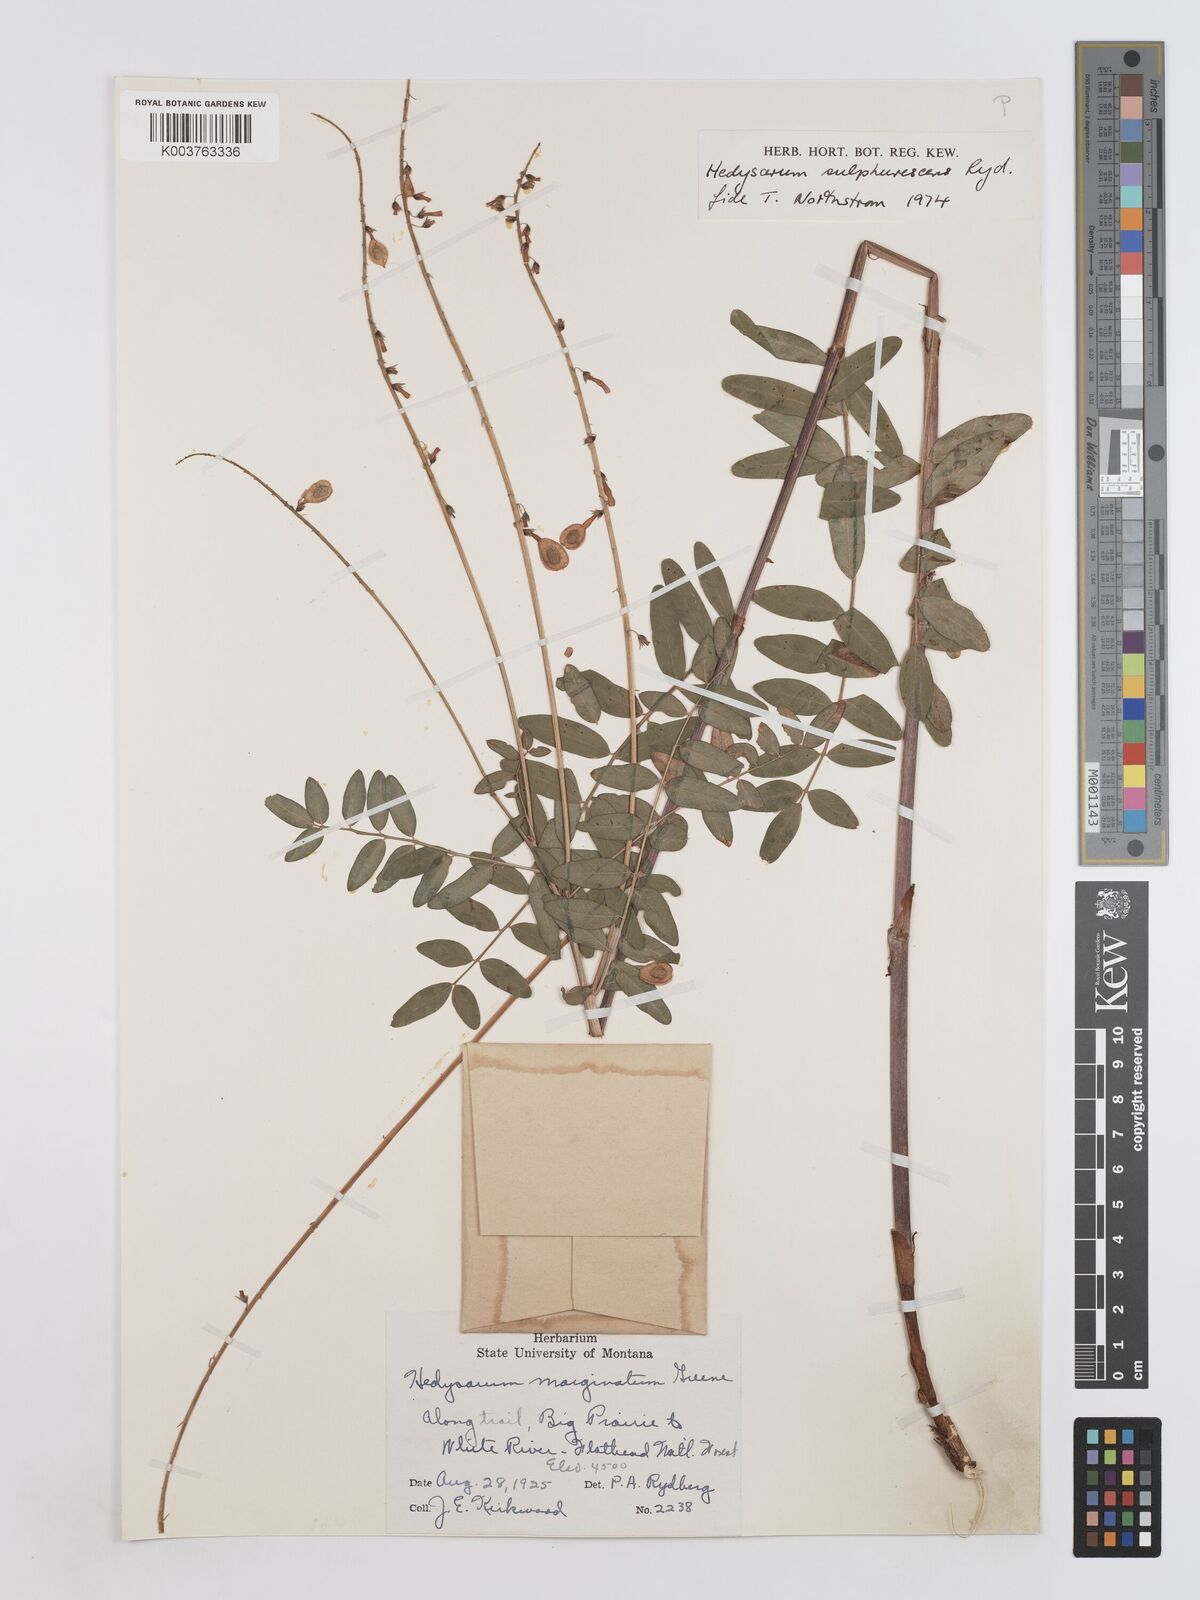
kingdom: Plantae
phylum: Tracheophyta
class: Magnoliopsida
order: Fabales
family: Fabaceae
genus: Hedysarum
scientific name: Hedysarum sulphurescens
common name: Sulphur hedysarum
